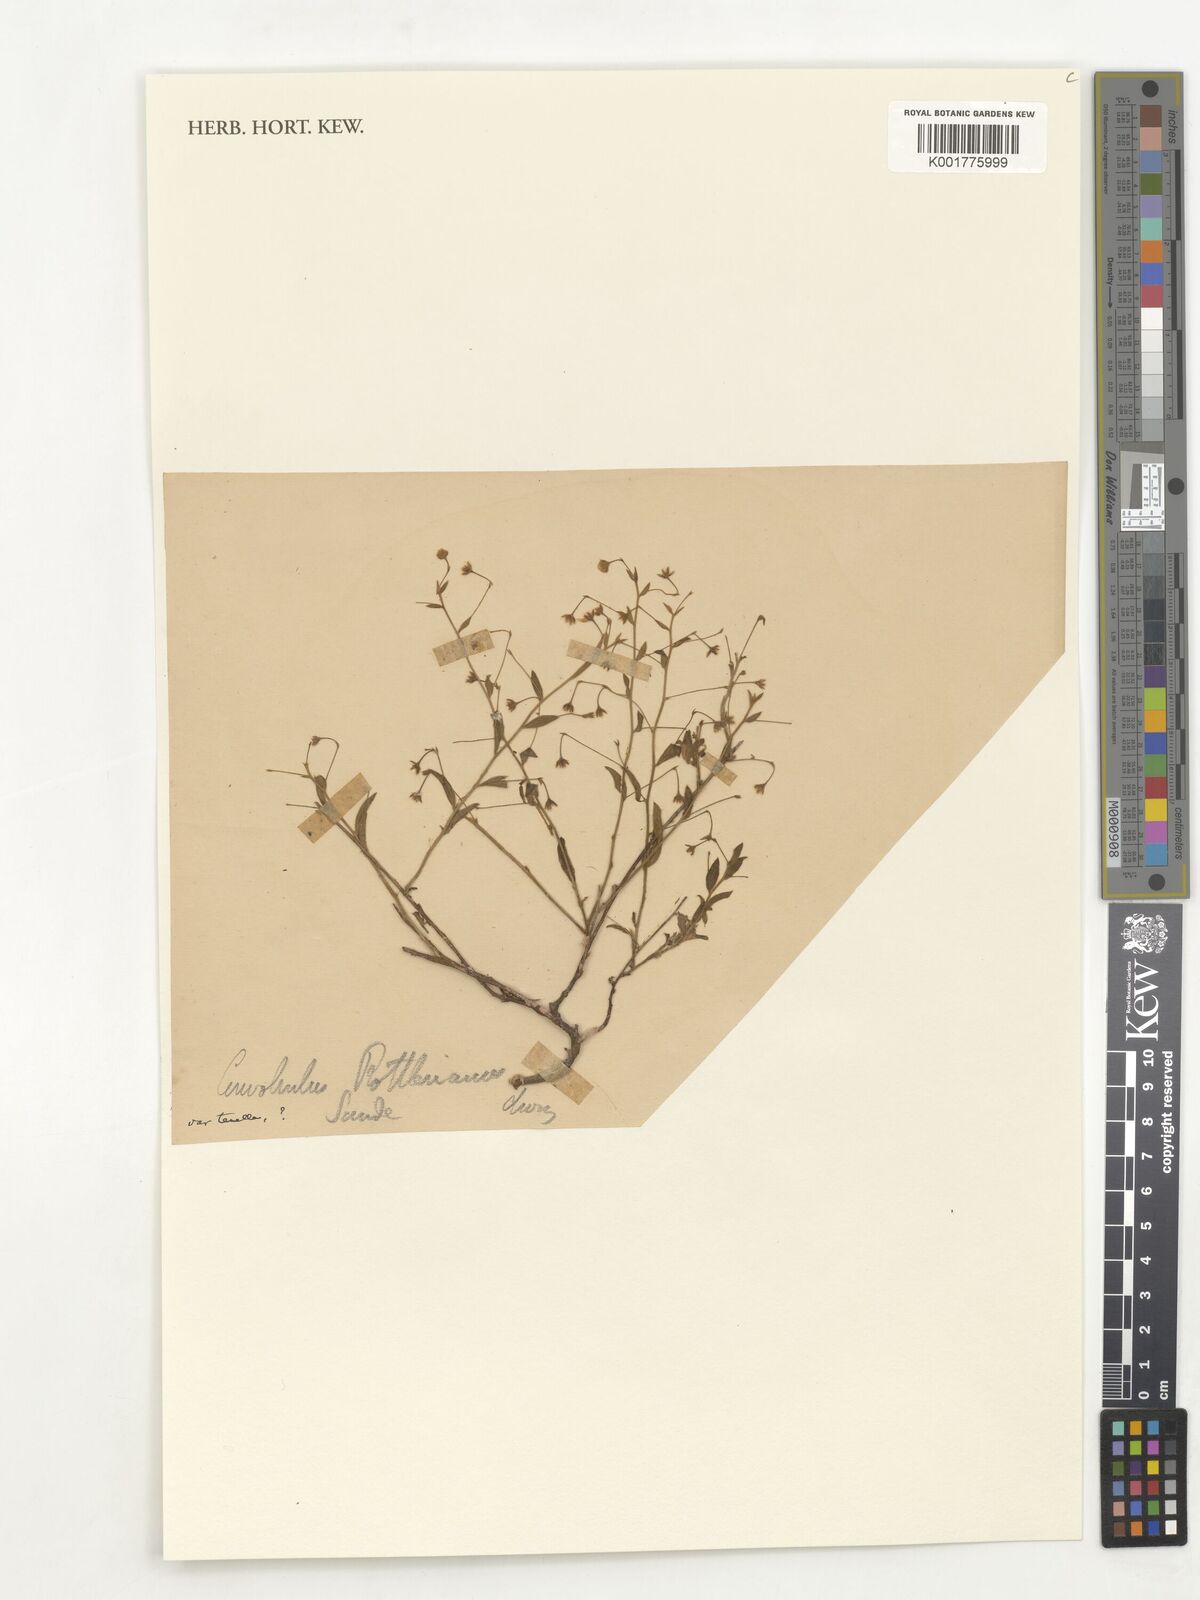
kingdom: Plantae
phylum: Tracheophyta
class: Magnoliopsida
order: Solanales
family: Convolvulaceae
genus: Convolvulus
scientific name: Convolvulus rottlerianus
